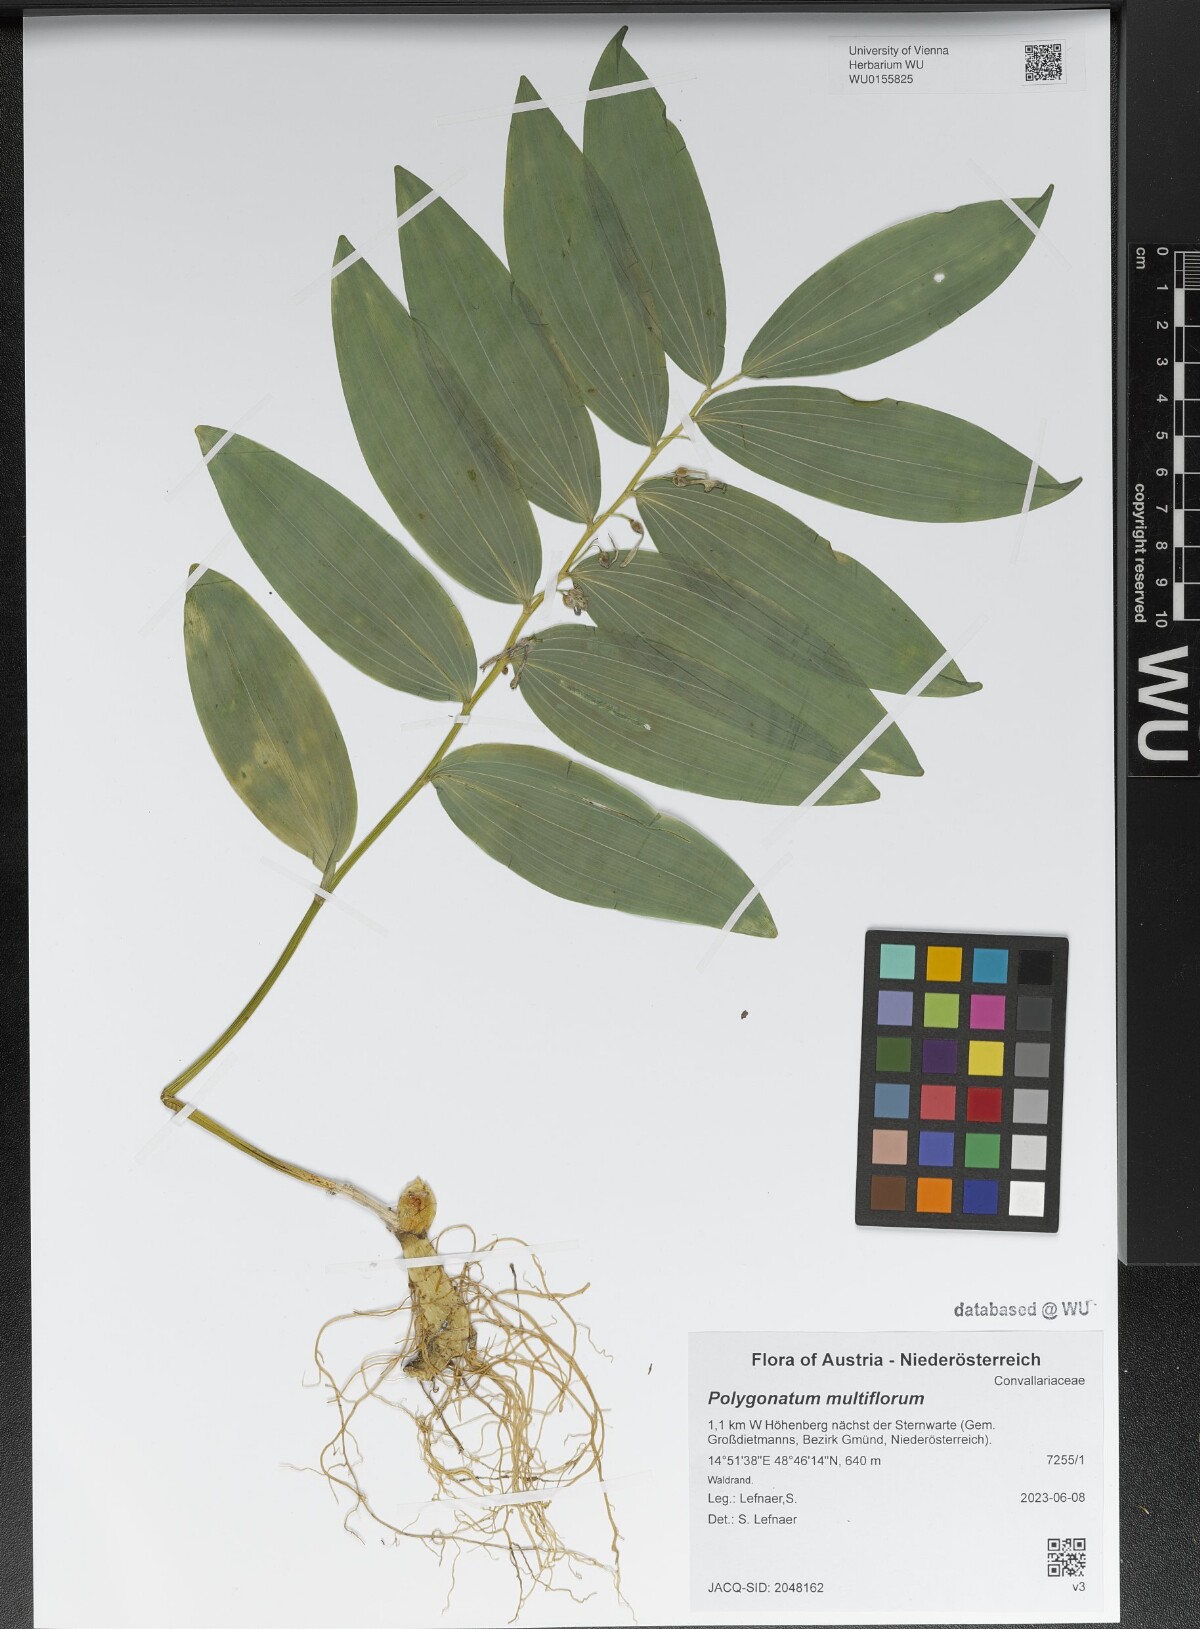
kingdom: Plantae
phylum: Tracheophyta
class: Liliopsida
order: Asparagales
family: Asparagaceae
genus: Polygonatum
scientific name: Polygonatum multiflorum
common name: Solomon's-seal
